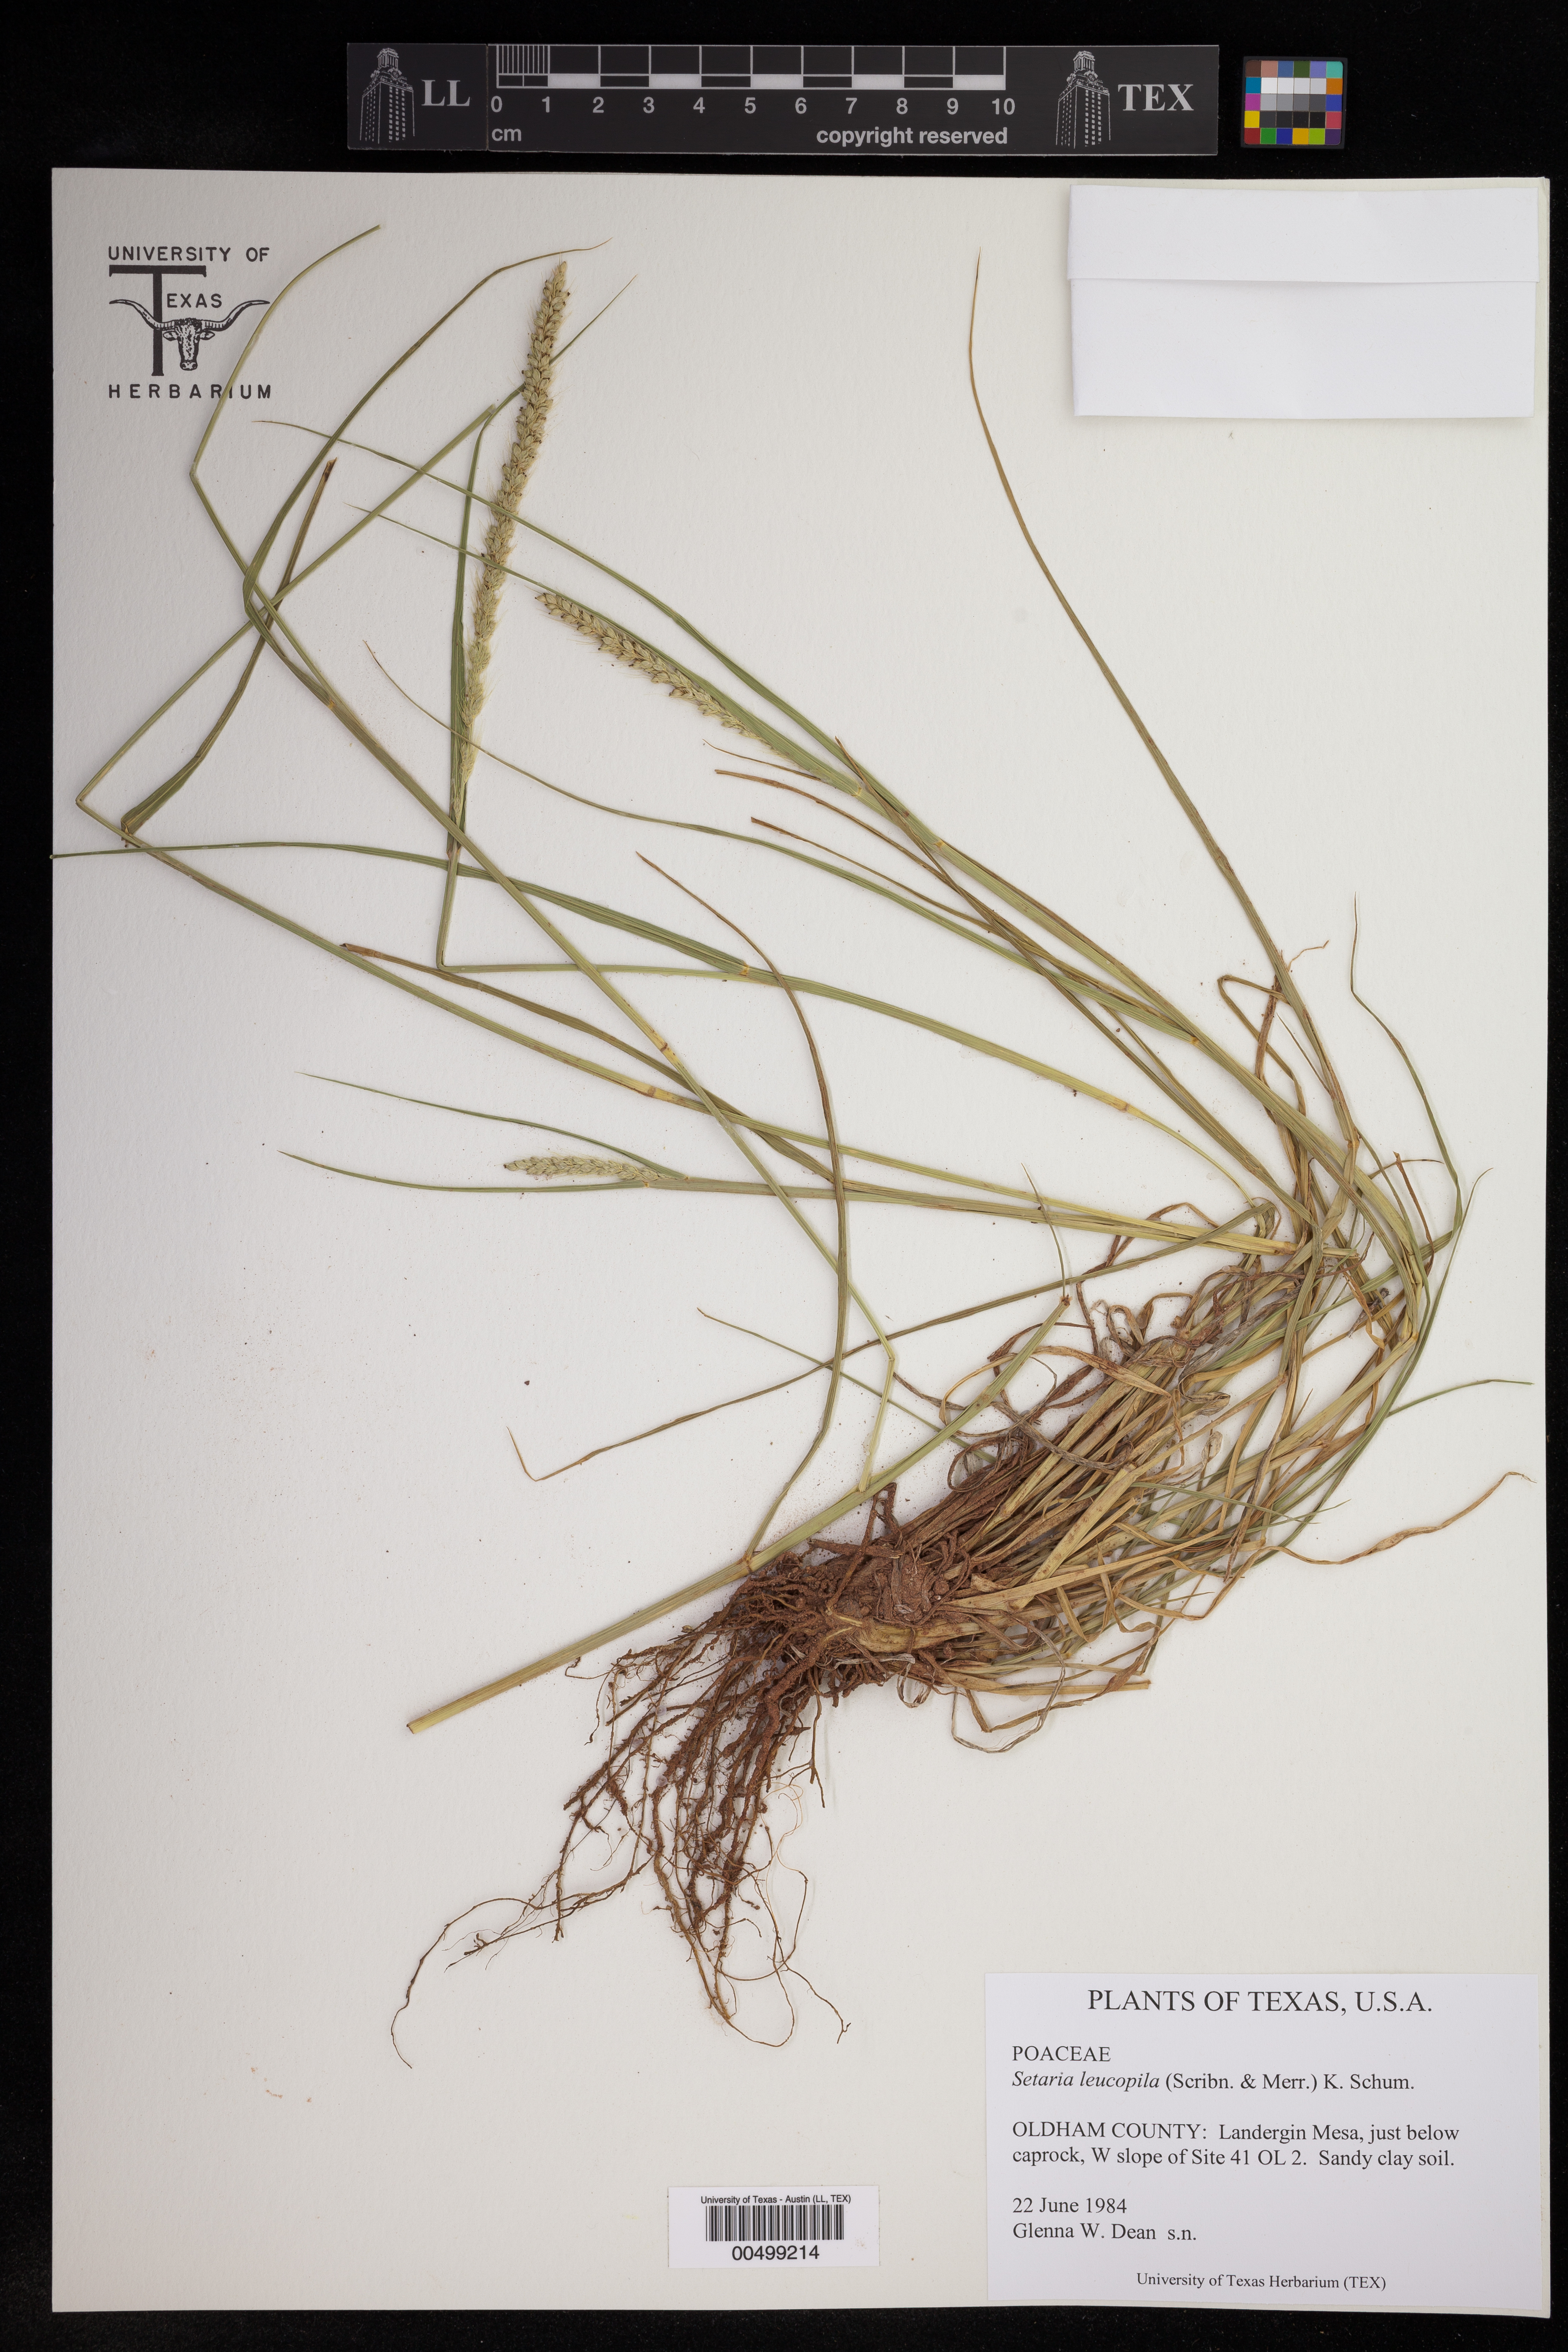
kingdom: Plantae
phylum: Tracheophyta
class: Liliopsida
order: Poales
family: Poaceae
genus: Setaria
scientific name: Setaria leucopila
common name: Plains bristle grass
